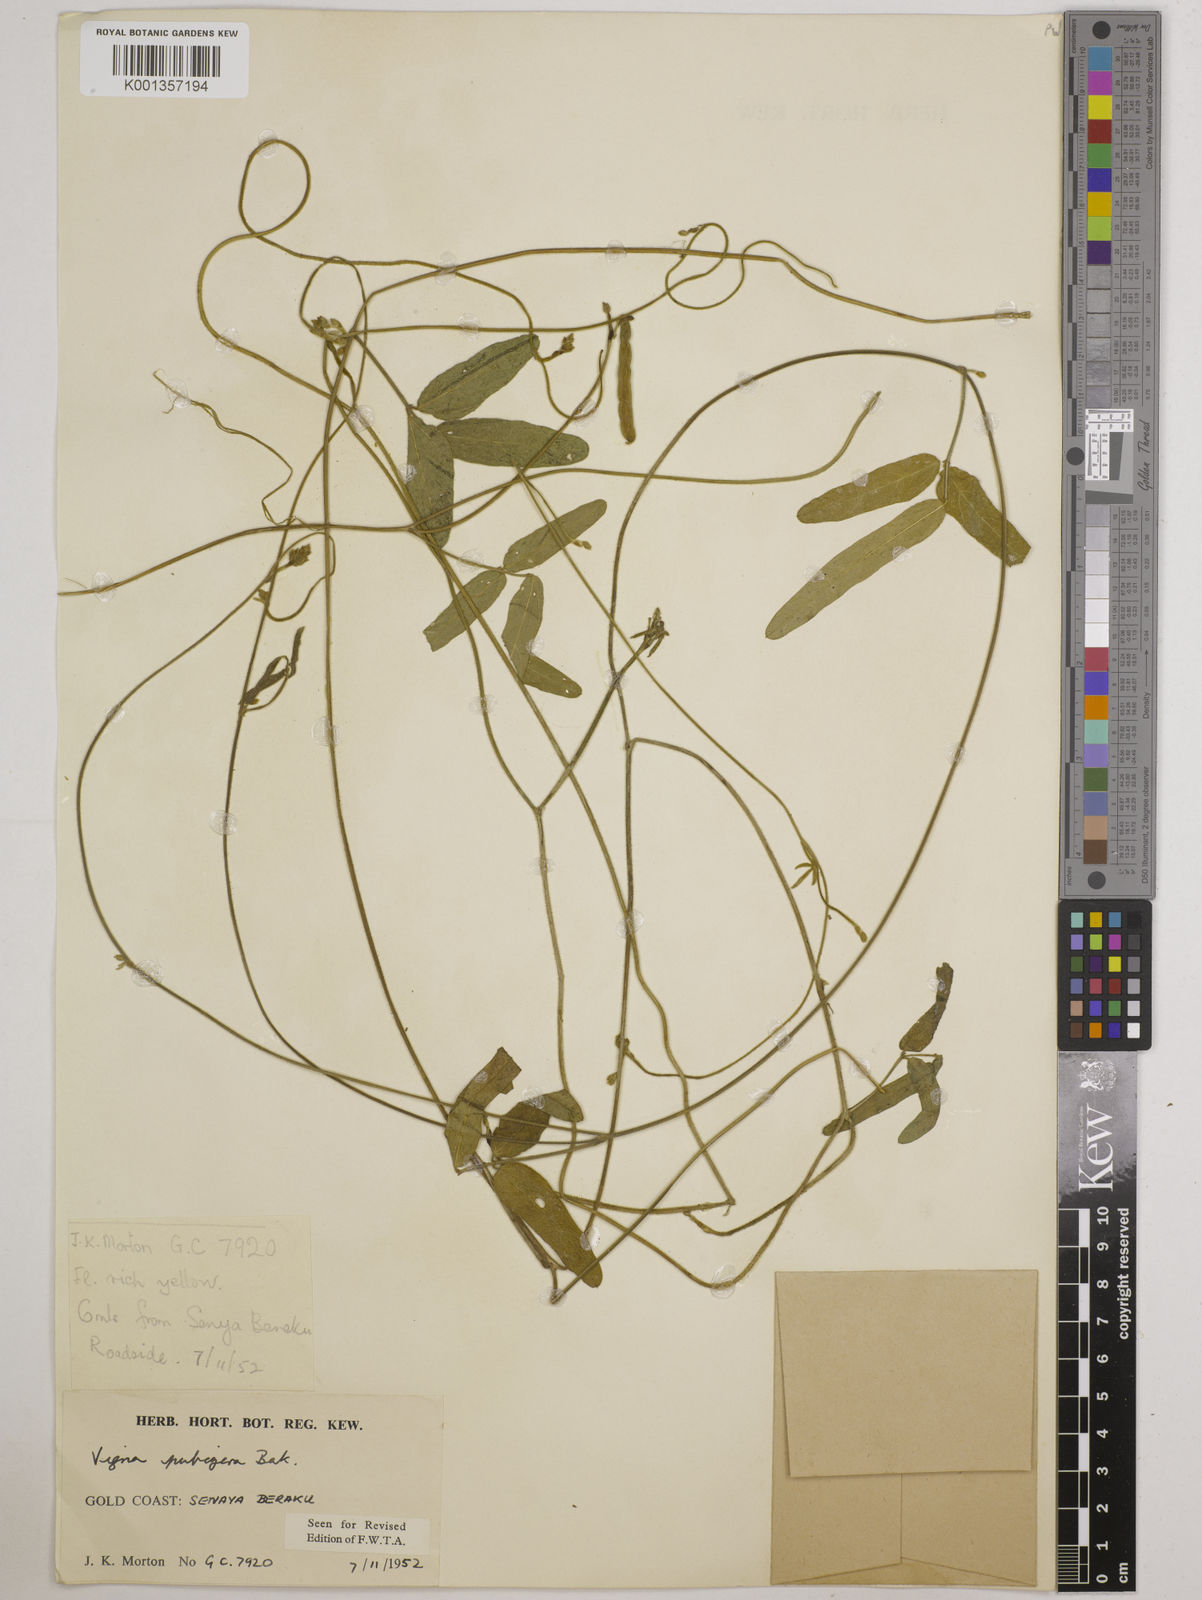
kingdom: Plantae
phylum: Tracheophyta
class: Magnoliopsida
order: Fabales
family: Fabaceae
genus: Vigna
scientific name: Vigna ambacensis
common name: Tsarkiyan zomo
